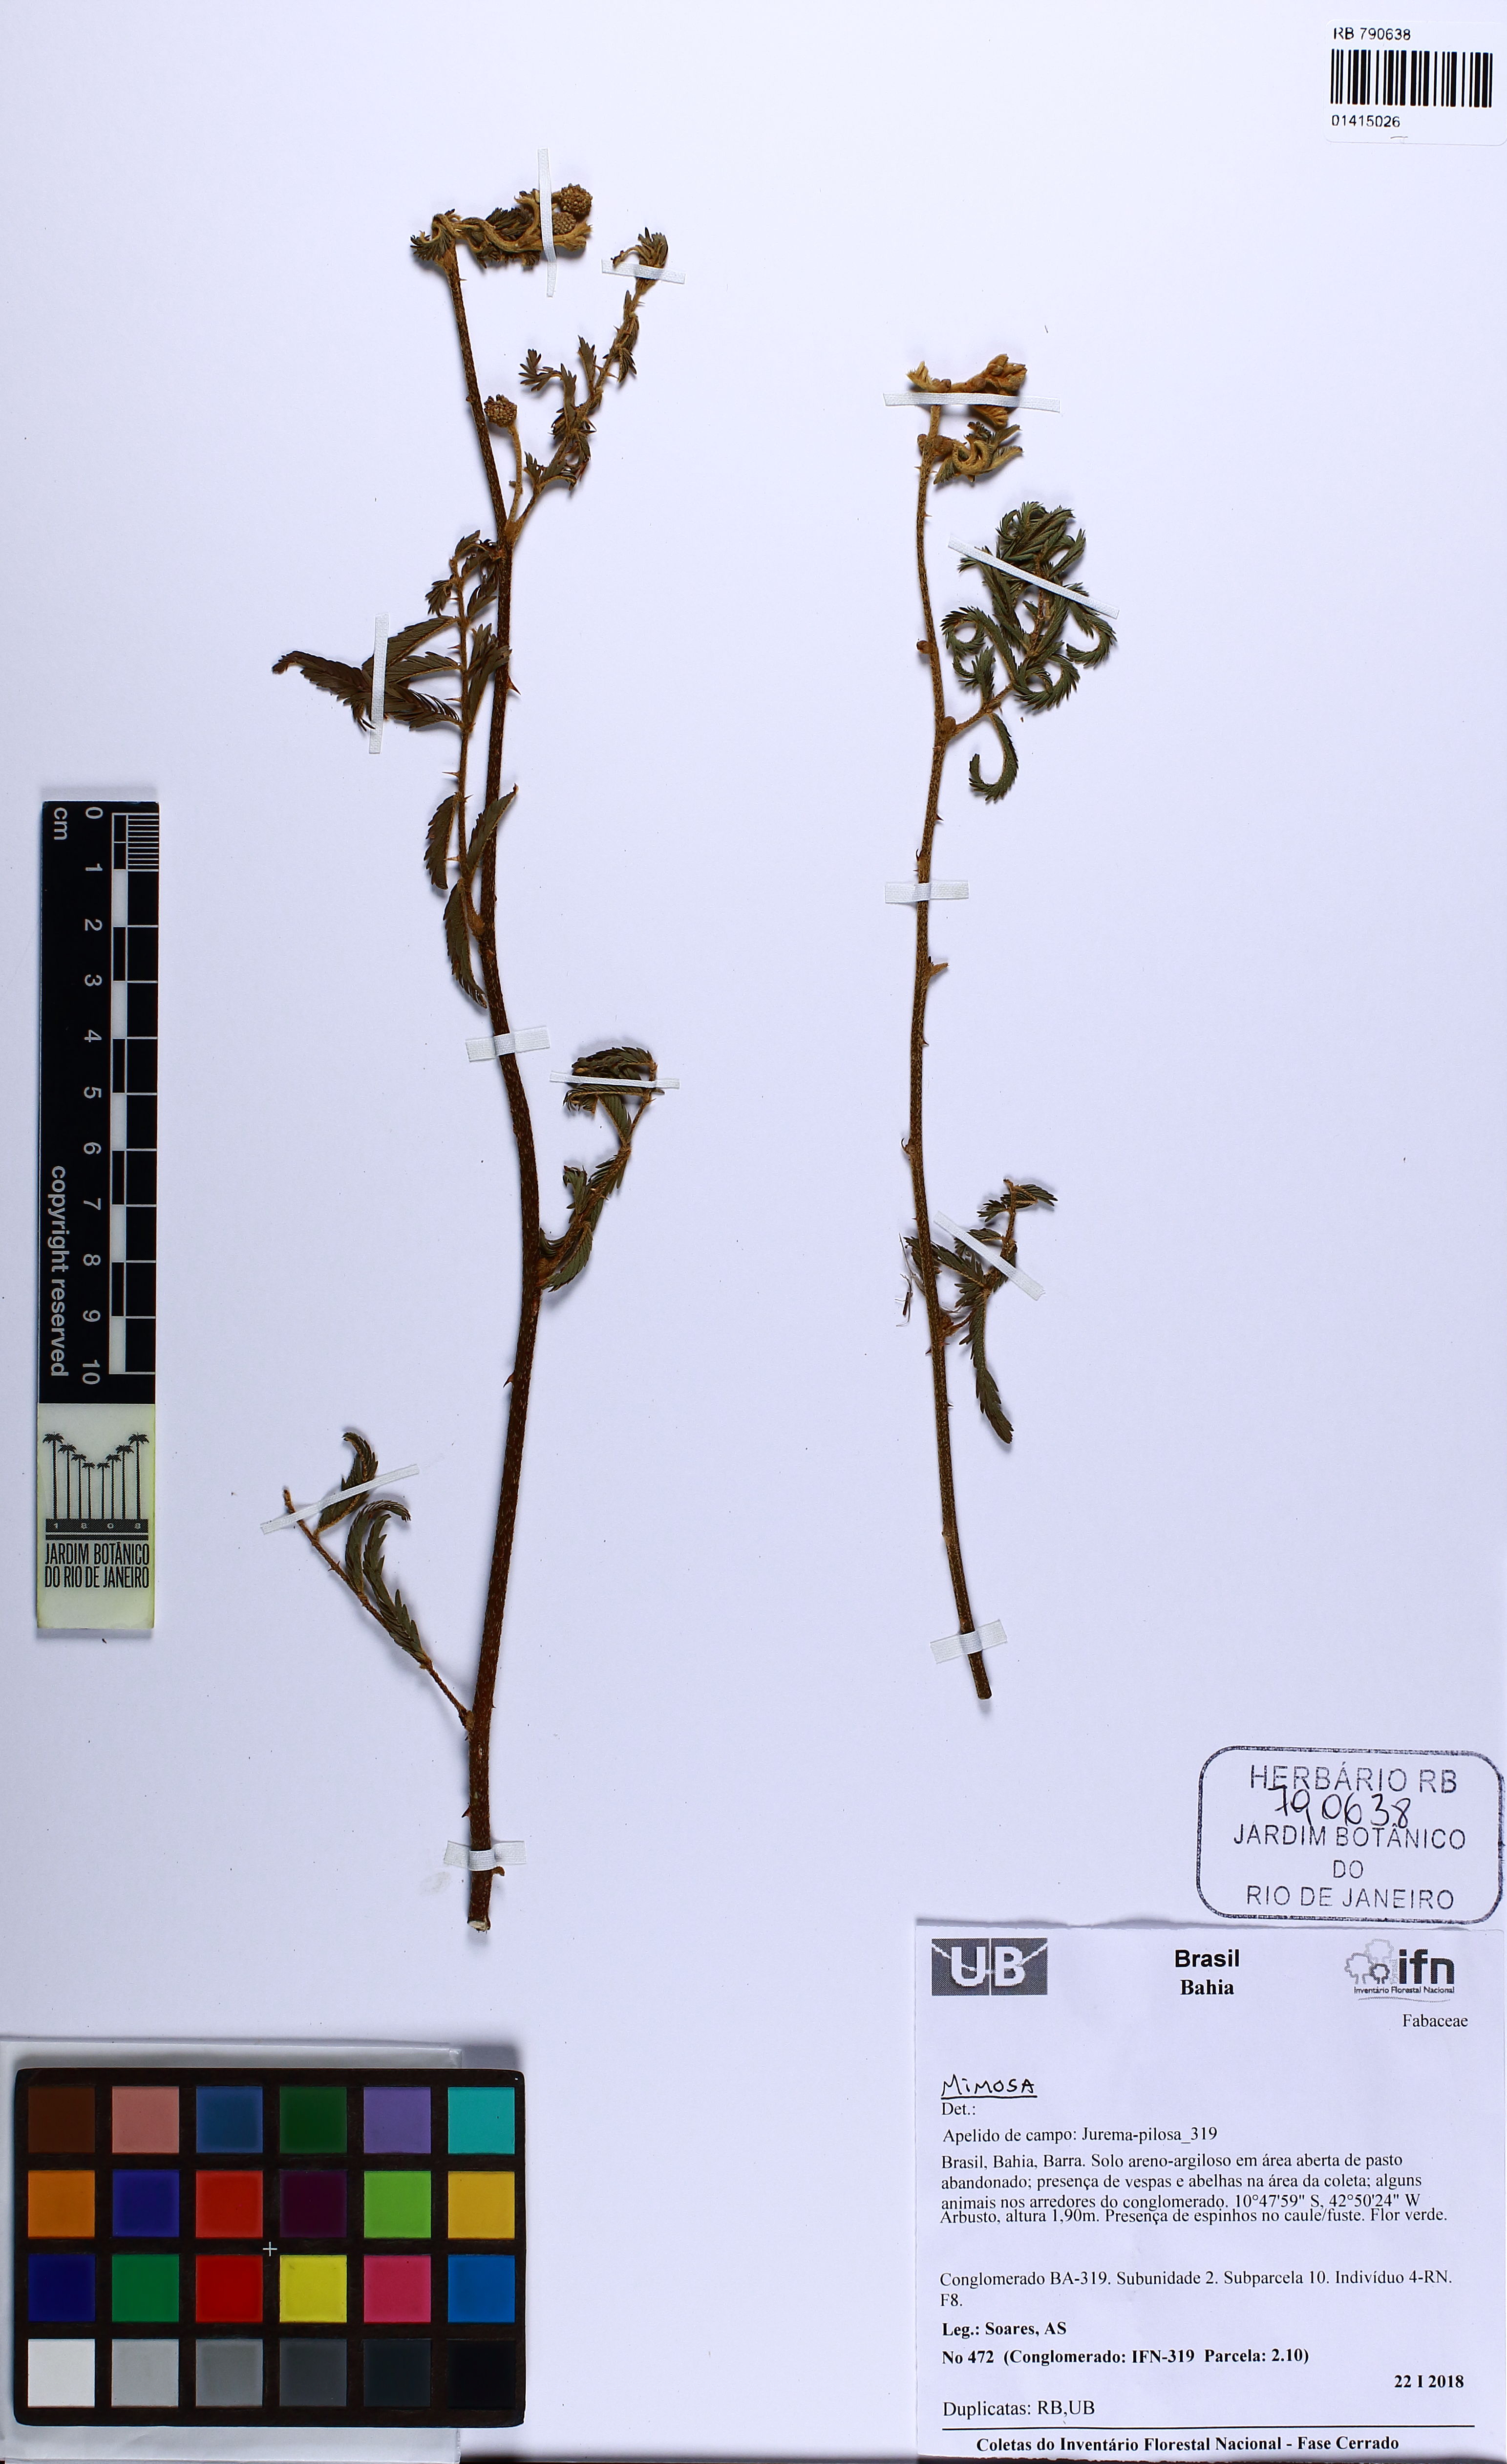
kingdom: Plantae
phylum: Tracheophyta
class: Magnoliopsida
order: Fabales
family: Fabaceae
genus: Mimosa
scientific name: Mimosa
